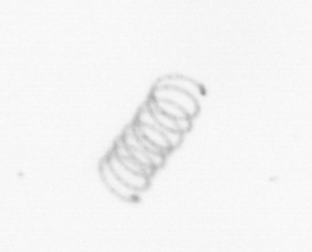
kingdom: Chromista
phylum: Ochrophyta
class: Bacillariophyceae
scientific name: Bacillariophyceae
